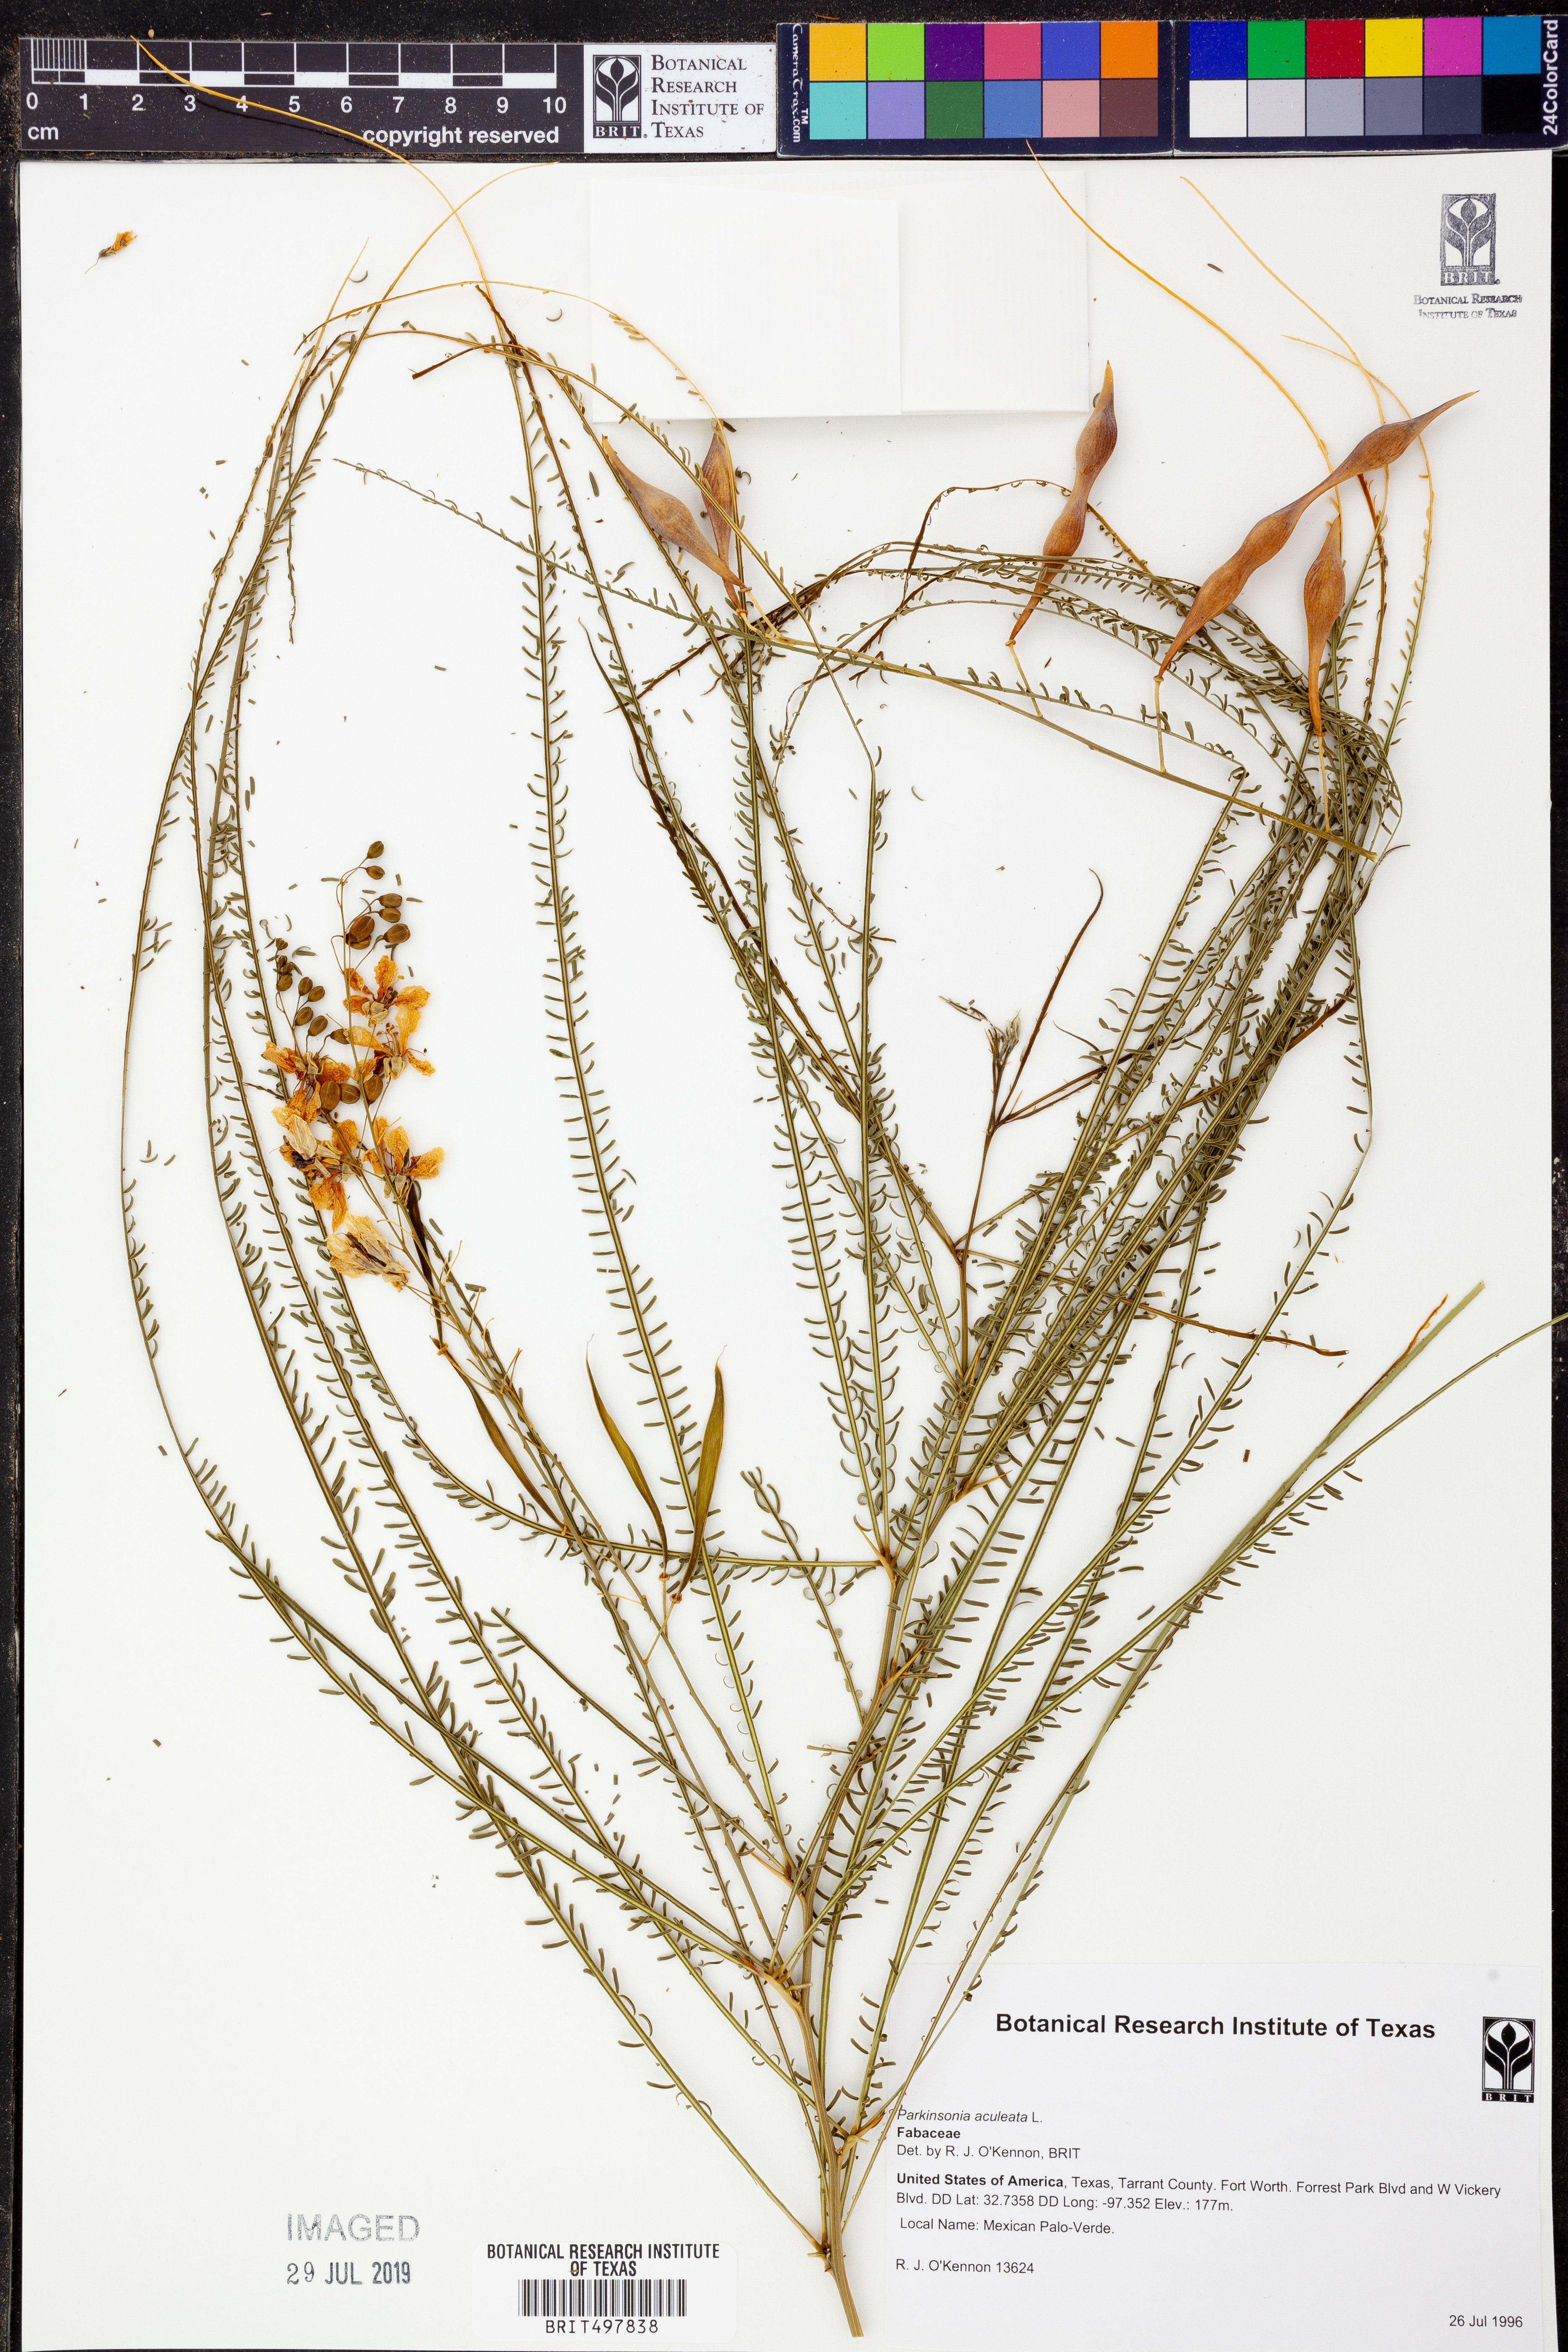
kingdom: Plantae
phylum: Tracheophyta
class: Magnoliopsida
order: Fabales
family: Fabaceae
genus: Parkinsonia
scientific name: Parkinsonia aculeata
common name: Jerusalem thorn
